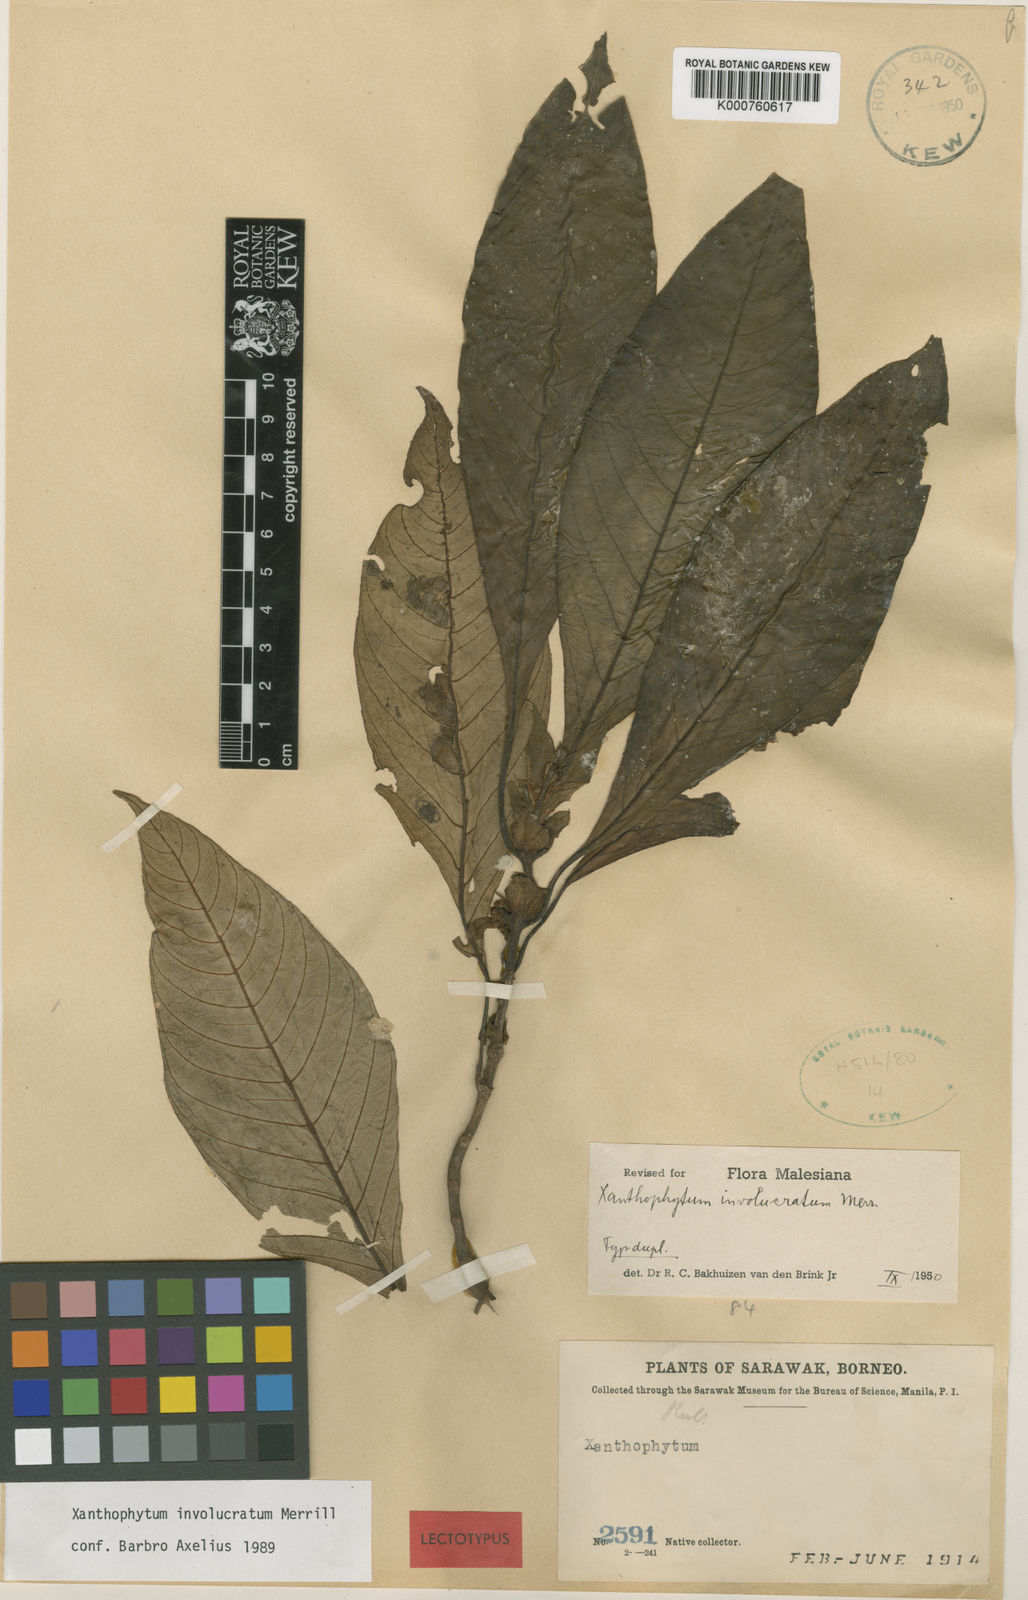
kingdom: Plantae
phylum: Tracheophyta
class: Magnoliopsida
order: Gentianales
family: Rubiaceae
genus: Xanthophytum
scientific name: Xanthophytum involucratum
